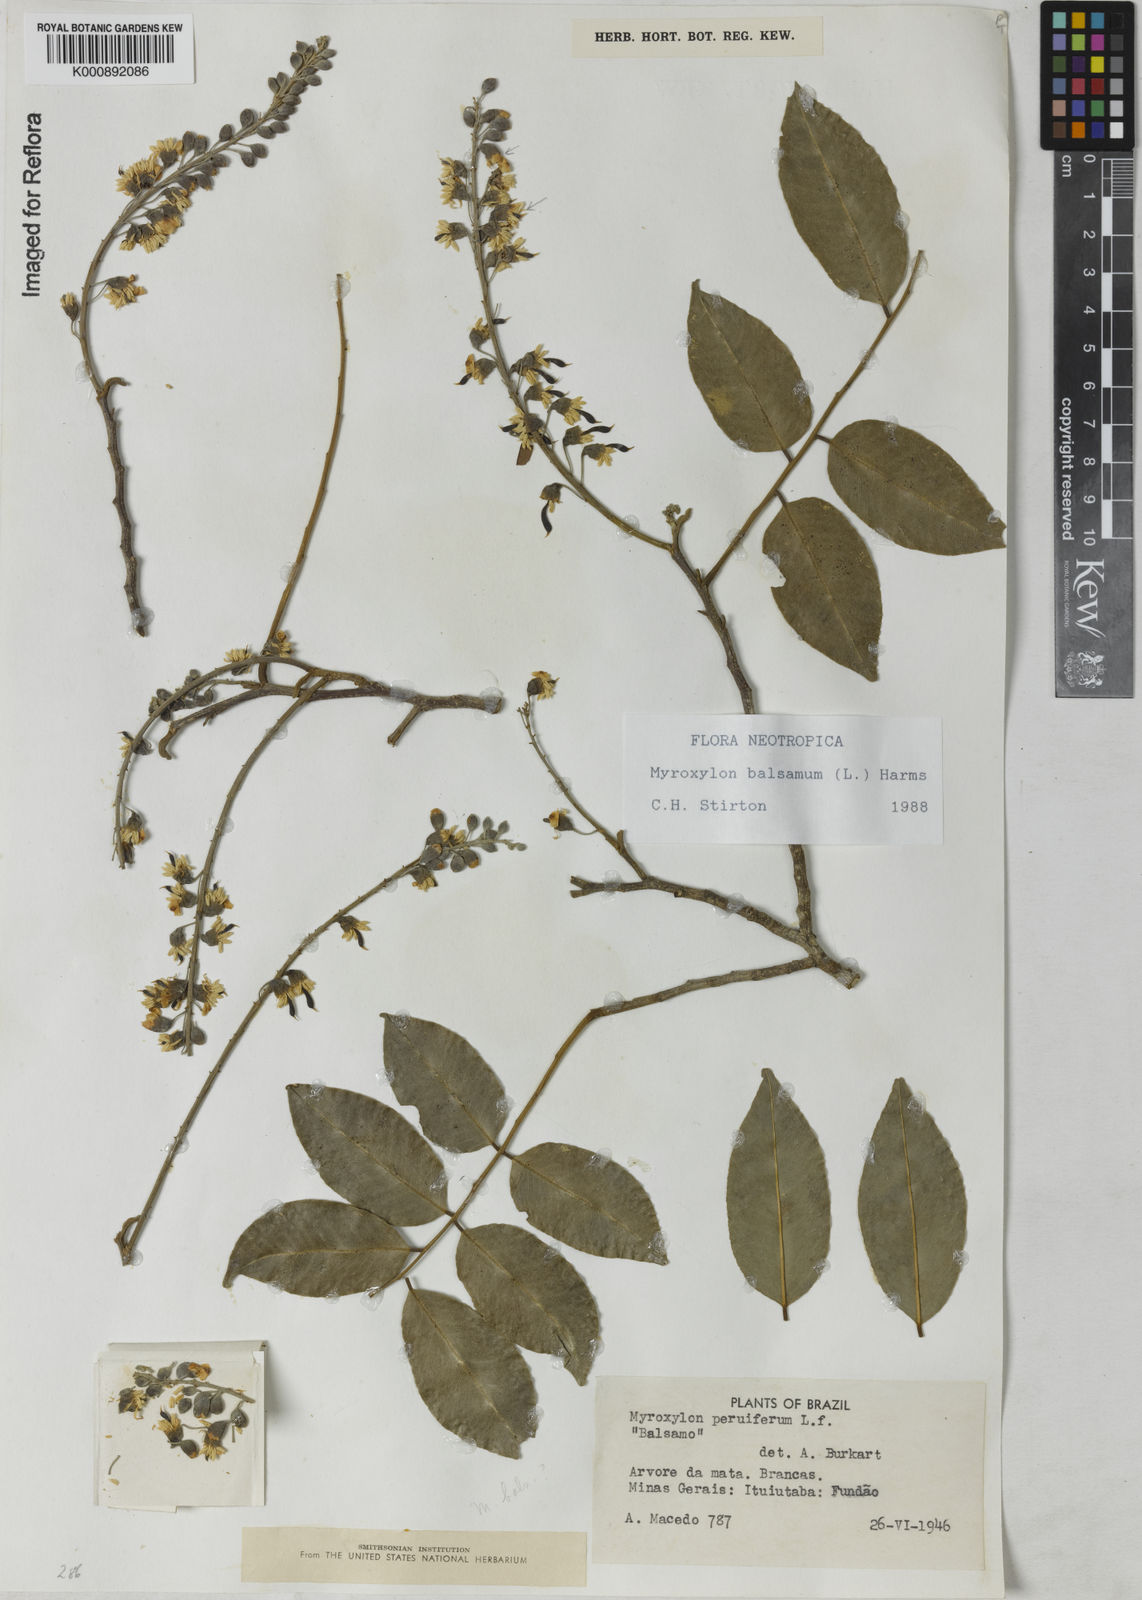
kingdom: Plantae
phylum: Tracheophyta
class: Magnoliopsida
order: Fabales
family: Fabaceae
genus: Myroxylon
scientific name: Myroxylon balsamum
